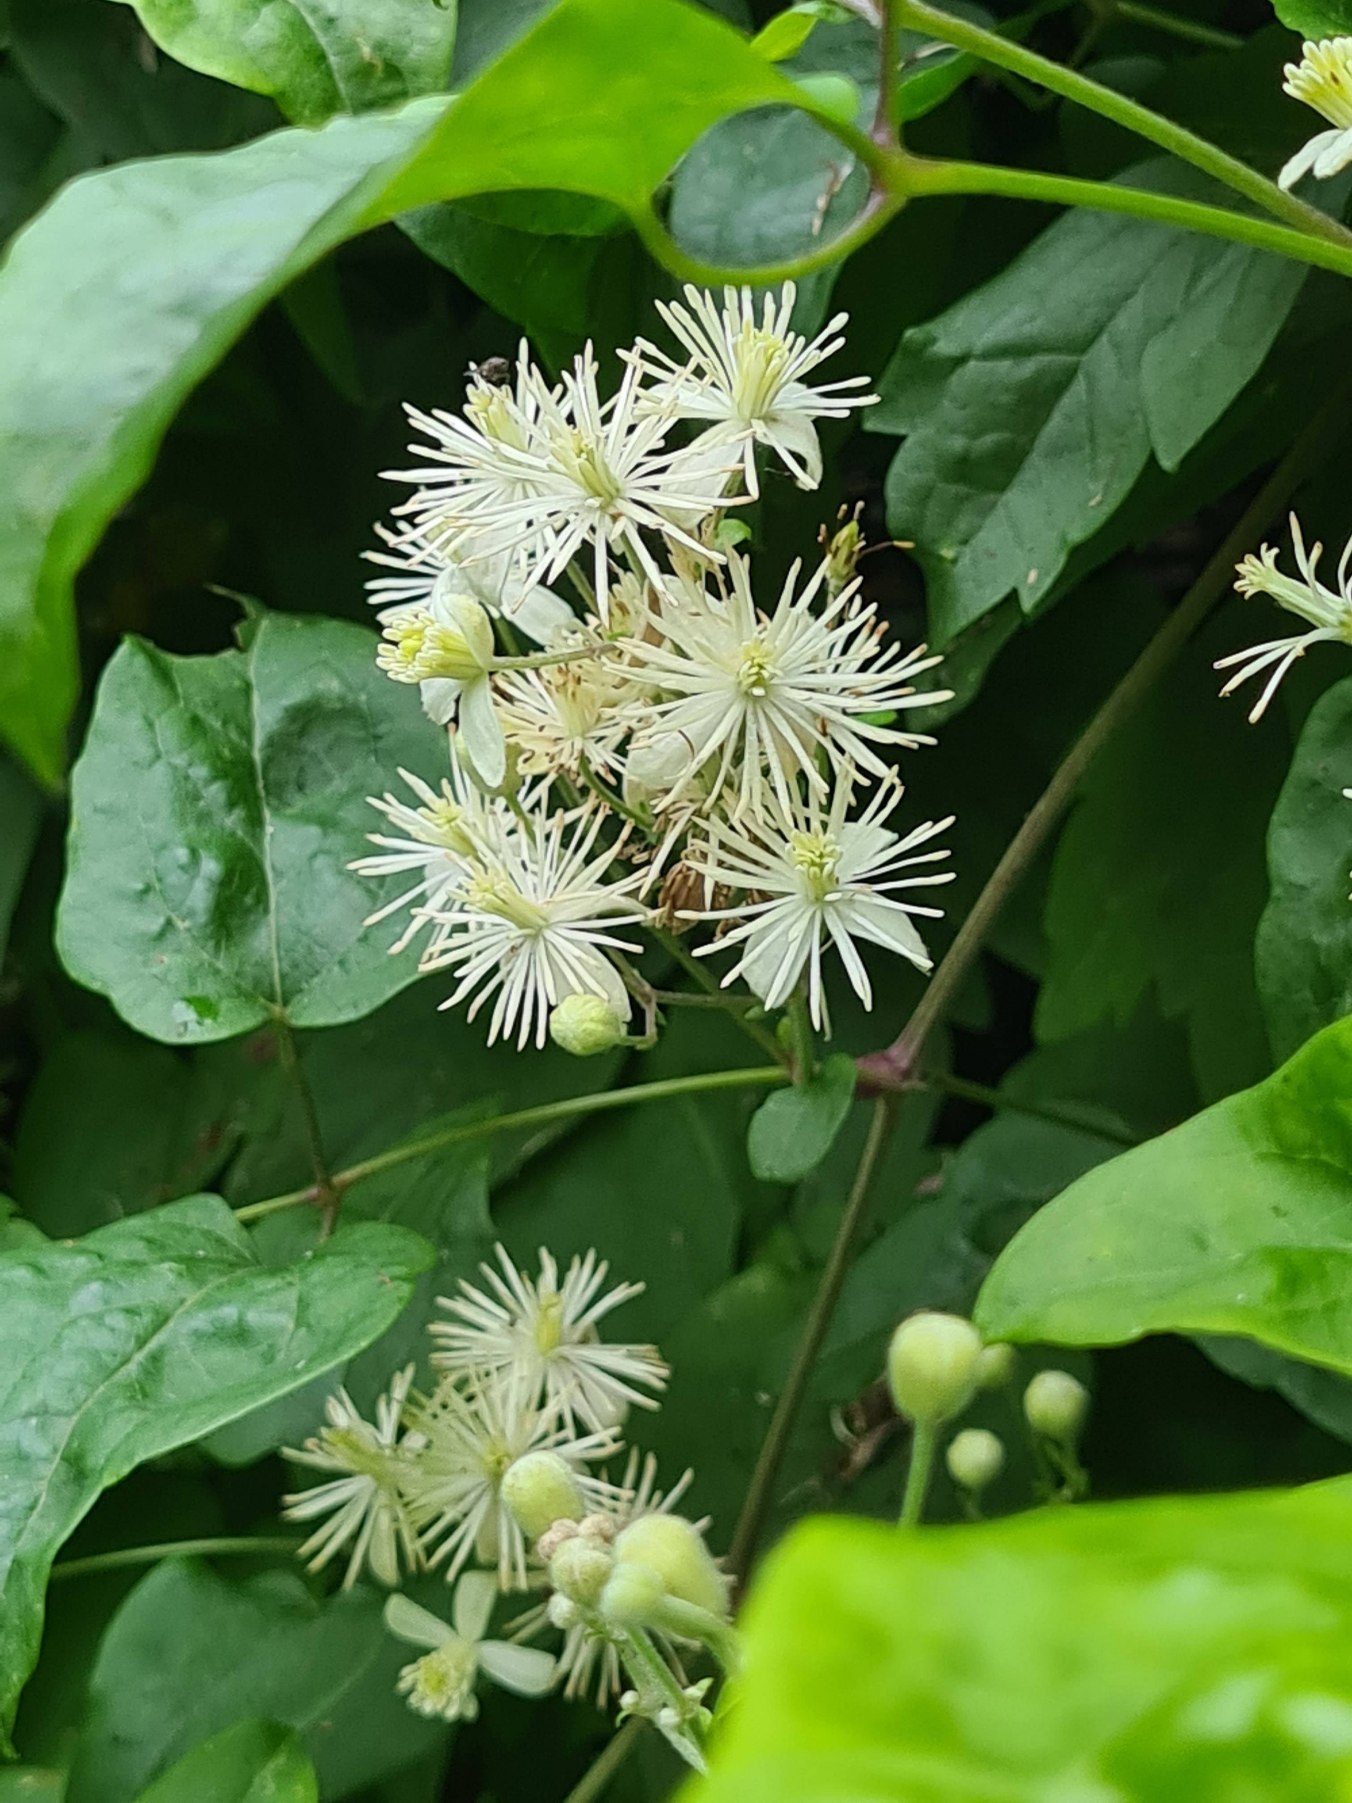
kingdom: Plantae
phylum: Tracheophyta
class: Magnoliopsida
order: Ranunculales
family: Ranunculaceae
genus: Clematis
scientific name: Clematis vitalba
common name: Skovranke
